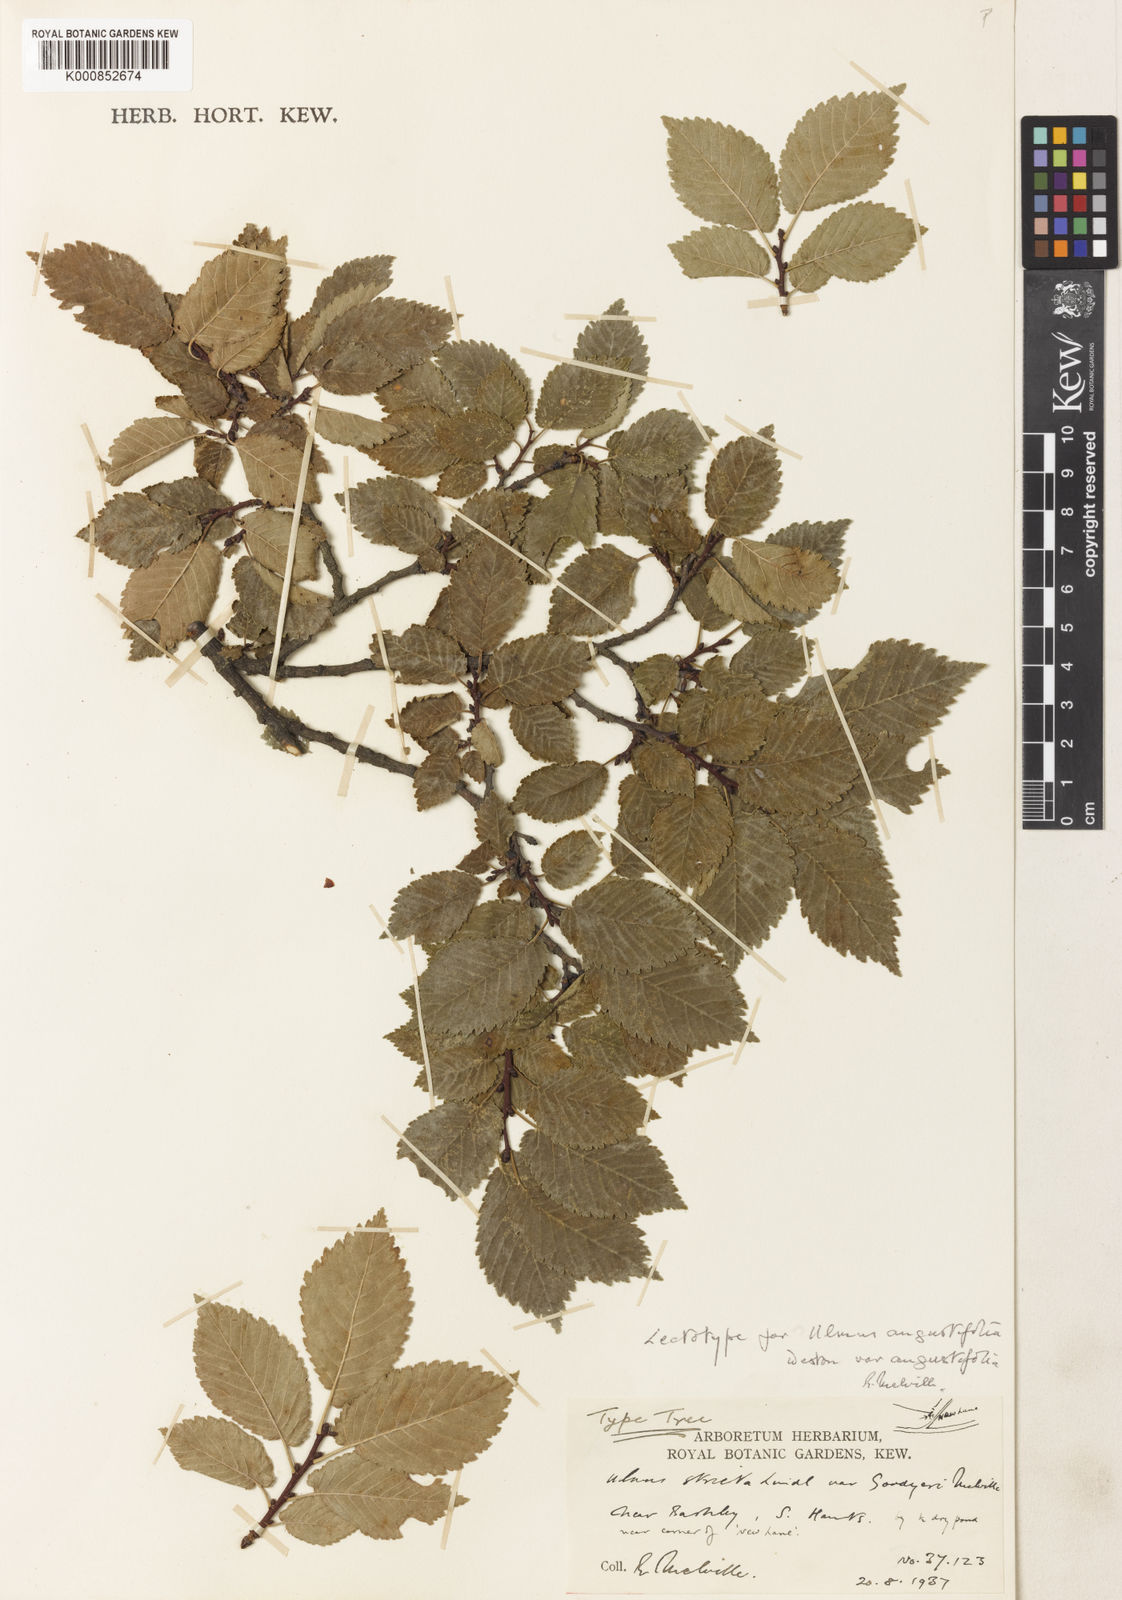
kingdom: Plantae
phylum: Tracheophyta
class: Magnoliopsida
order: Rosales
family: Ulmaceae
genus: Ulmus
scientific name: Ulmus
